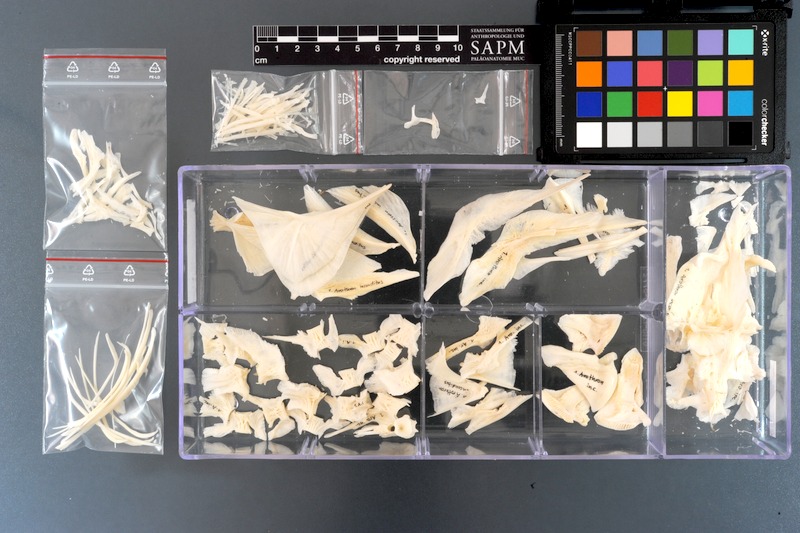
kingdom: Animalia
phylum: Chordata
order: Tetraodontiformes
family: Tetraodontidae
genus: Arothron
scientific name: Arothron inconditus
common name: Bellystriped blaasop
